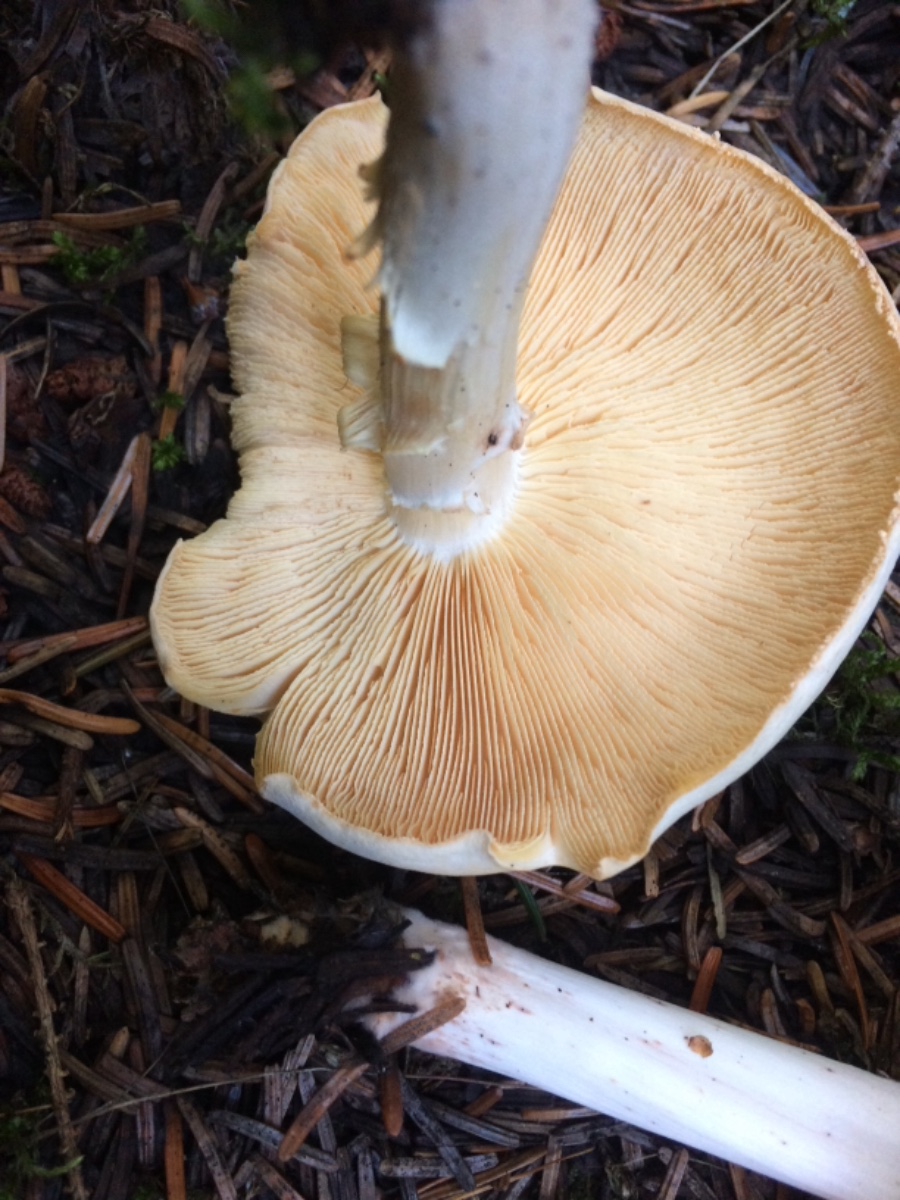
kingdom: Fungi
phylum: Basidiomycota
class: Agaricomycetes
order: Agaricales
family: Omphalotaceae
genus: Rhodocollybia
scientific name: Rhodocollybia maculata
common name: plettet fladhat
